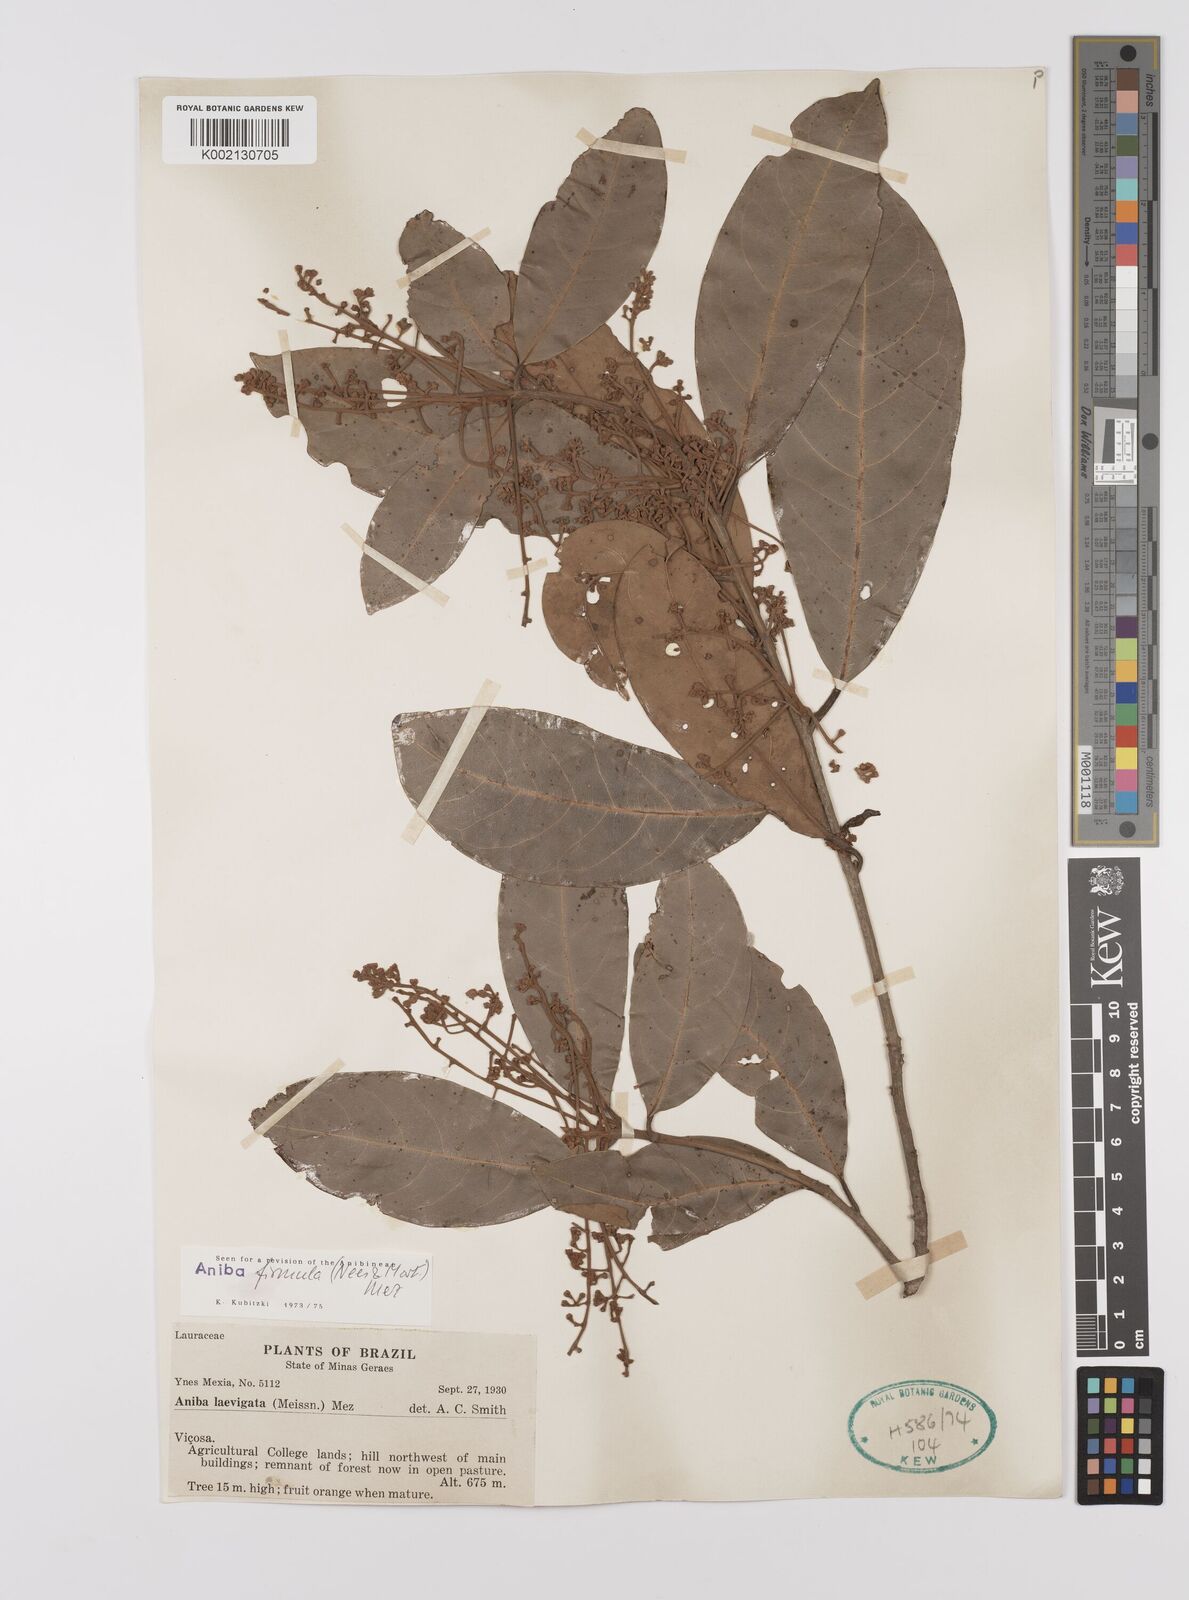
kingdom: Plantae
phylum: Tracheophyta
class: Magnoliopsida
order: Laurales
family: Lauraceae
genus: Aniba
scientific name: Aniba firmula
